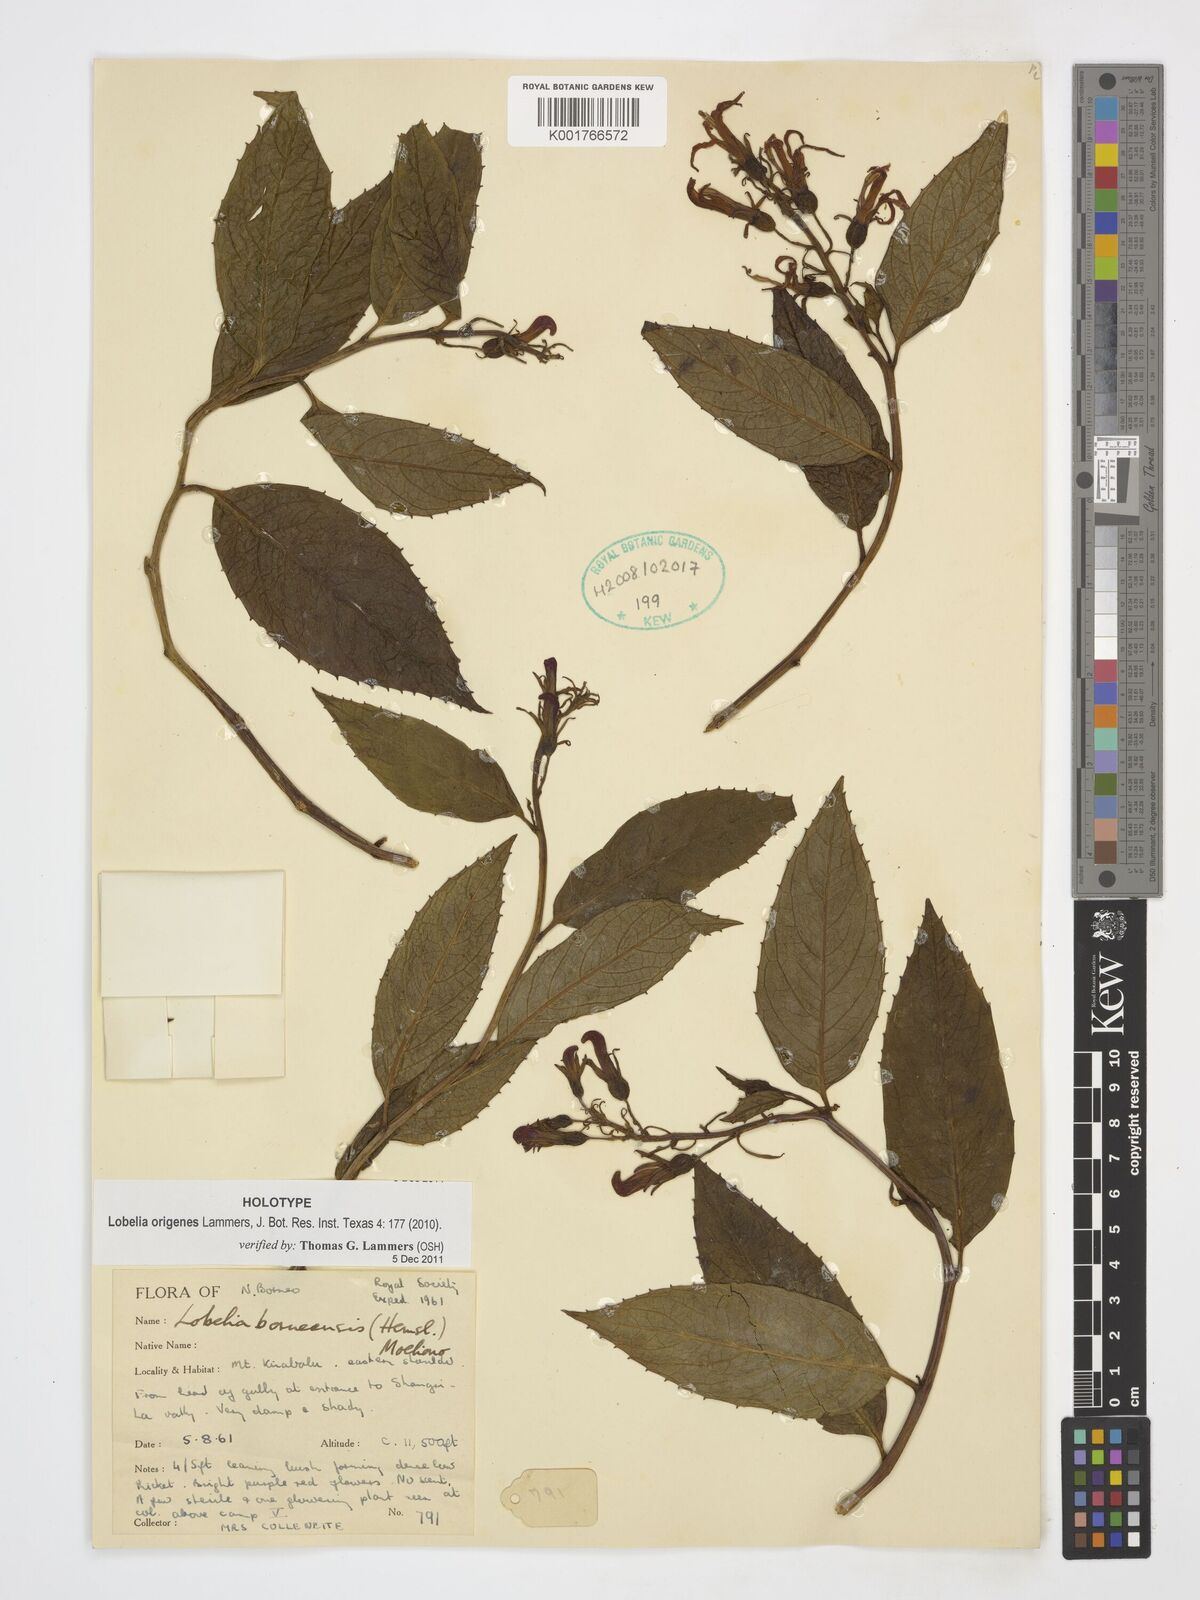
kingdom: Plantae
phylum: Tracheophyta
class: Magnoliopsida
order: Asterales
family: Campanulaceae
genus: Lobelia
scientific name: Lobelia origenes
